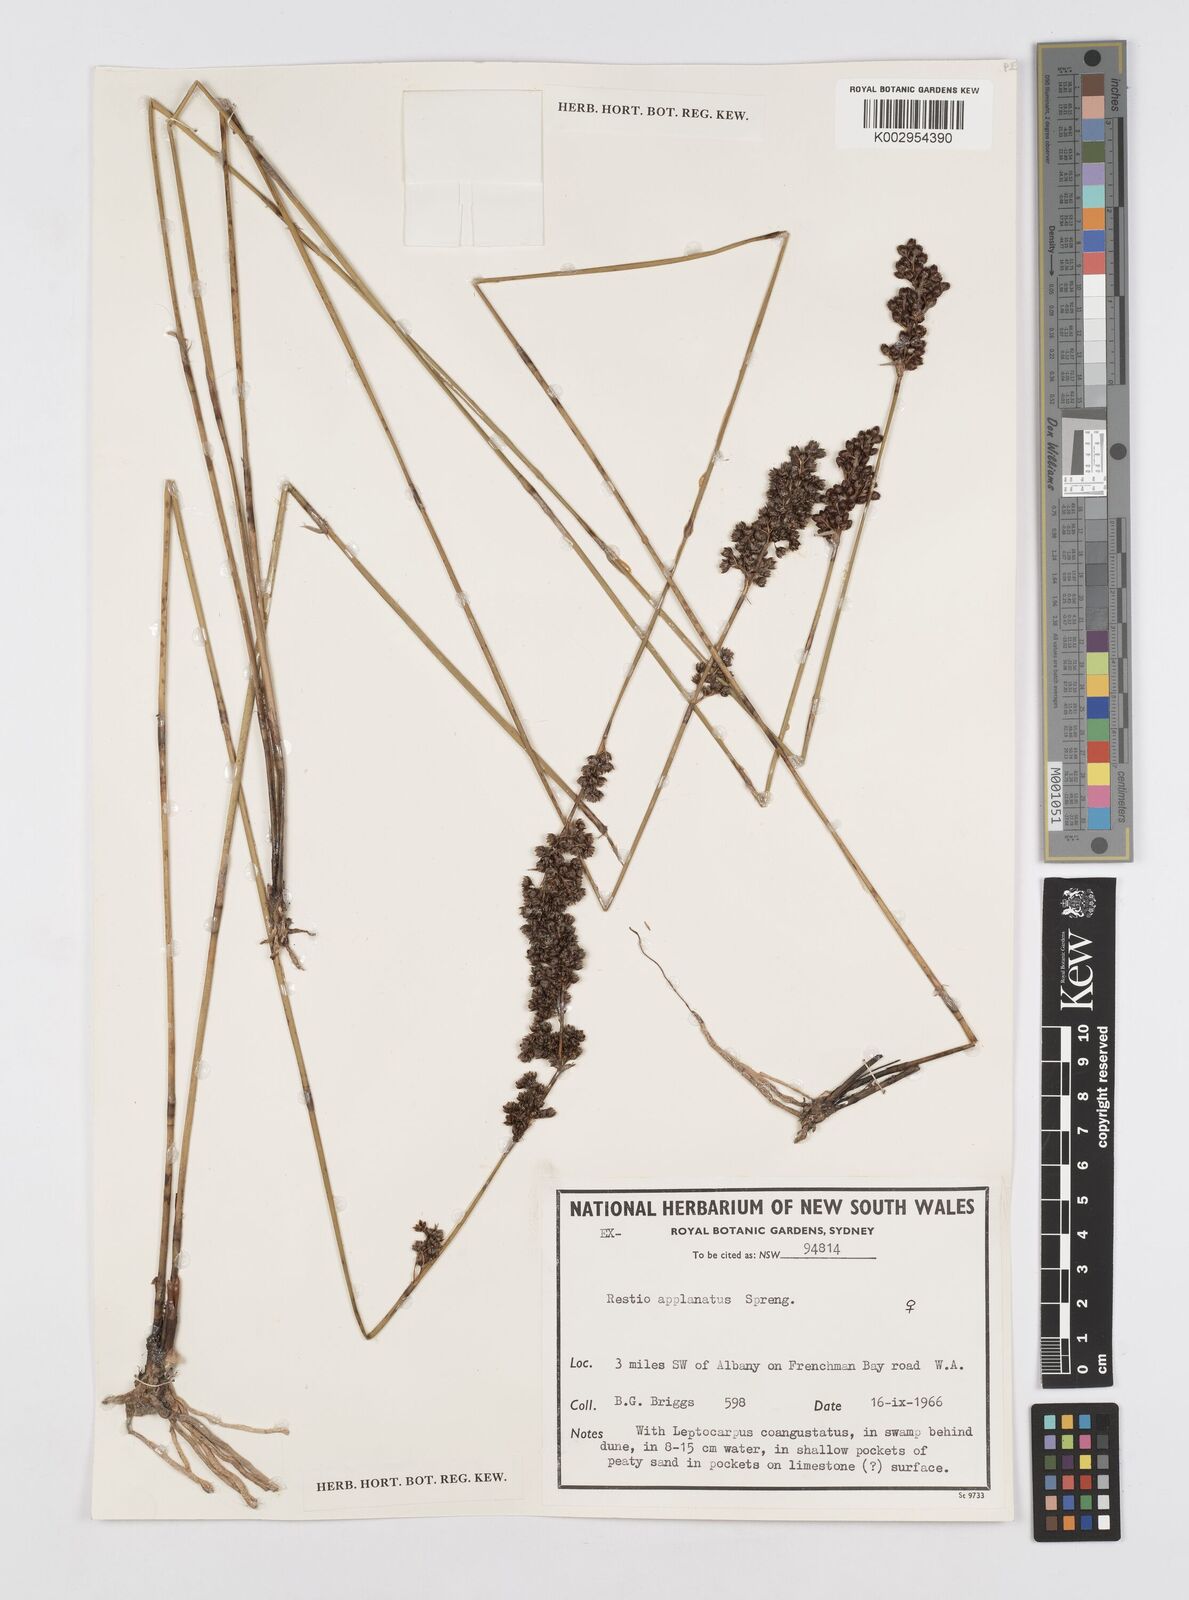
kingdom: Plantae
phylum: Tracheophyta
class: Liliopsida
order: Poales
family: Restionaceae
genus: Platychorda
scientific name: Platychorda applanata
